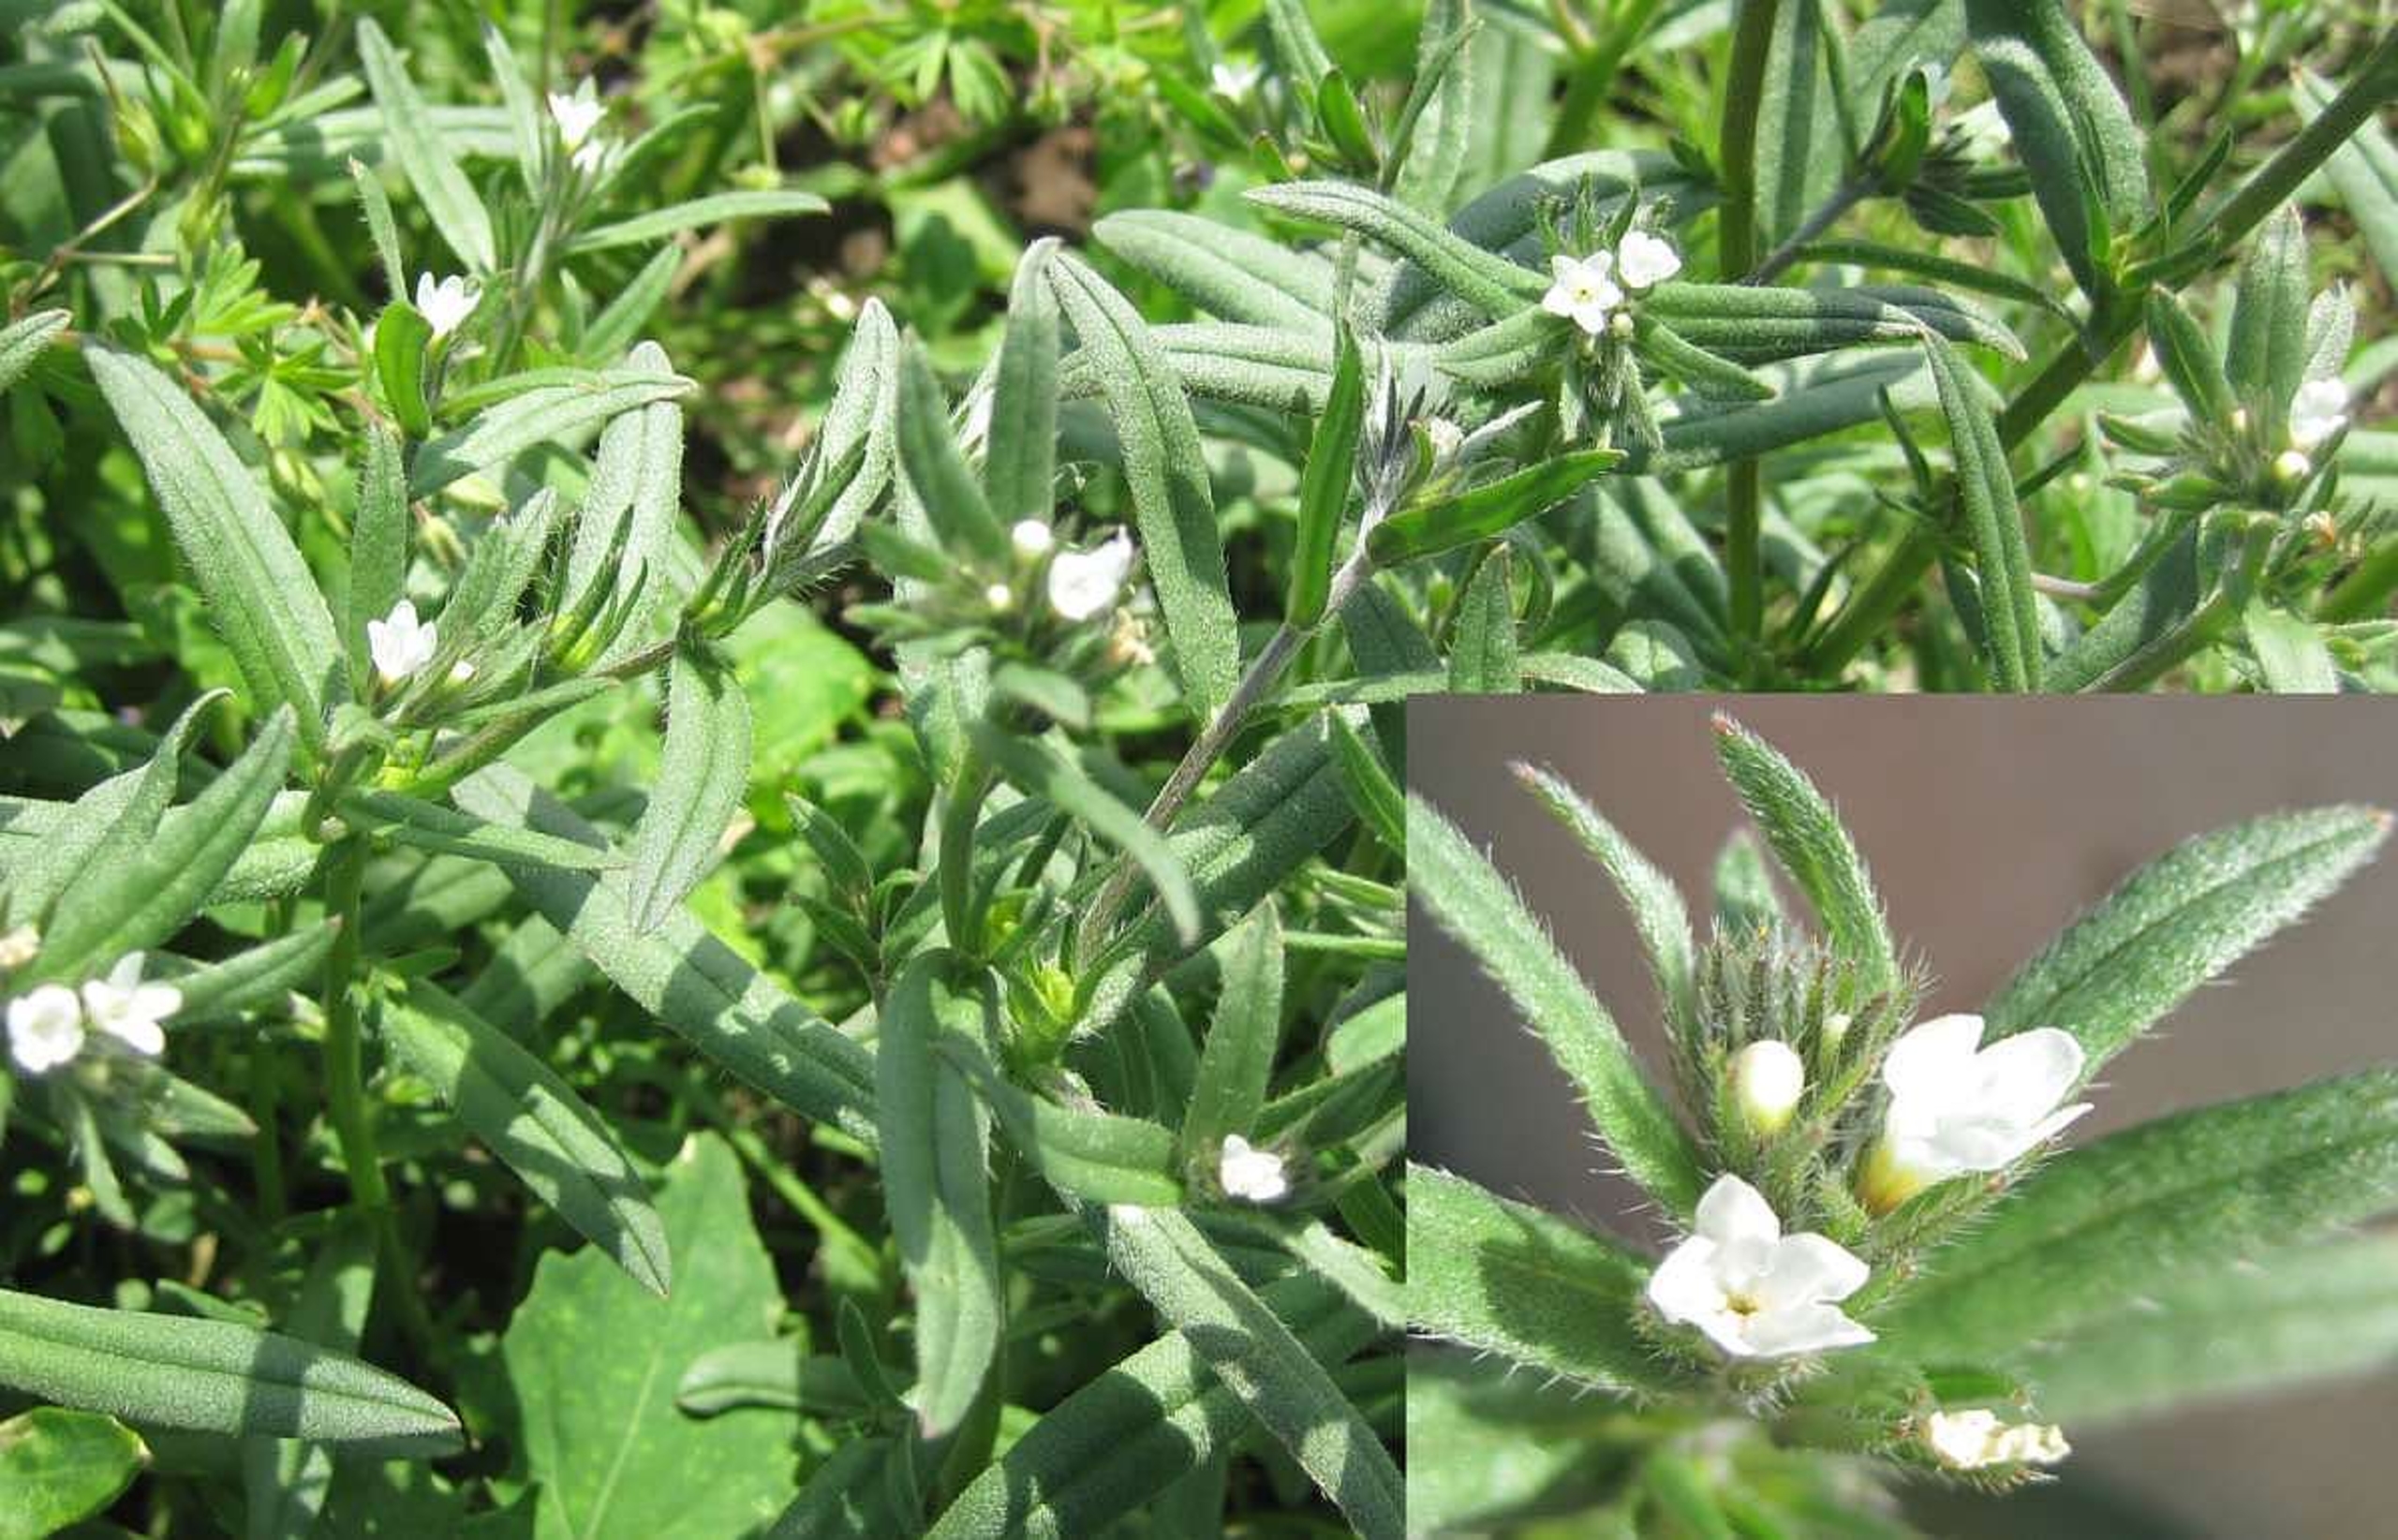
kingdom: Plantae
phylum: Tracheophyta
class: Magnoliopsida
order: Boraginales
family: Boraginaceae
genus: Buglossoides
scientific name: Buglossoides arvensis
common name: Rynket stenfrø
